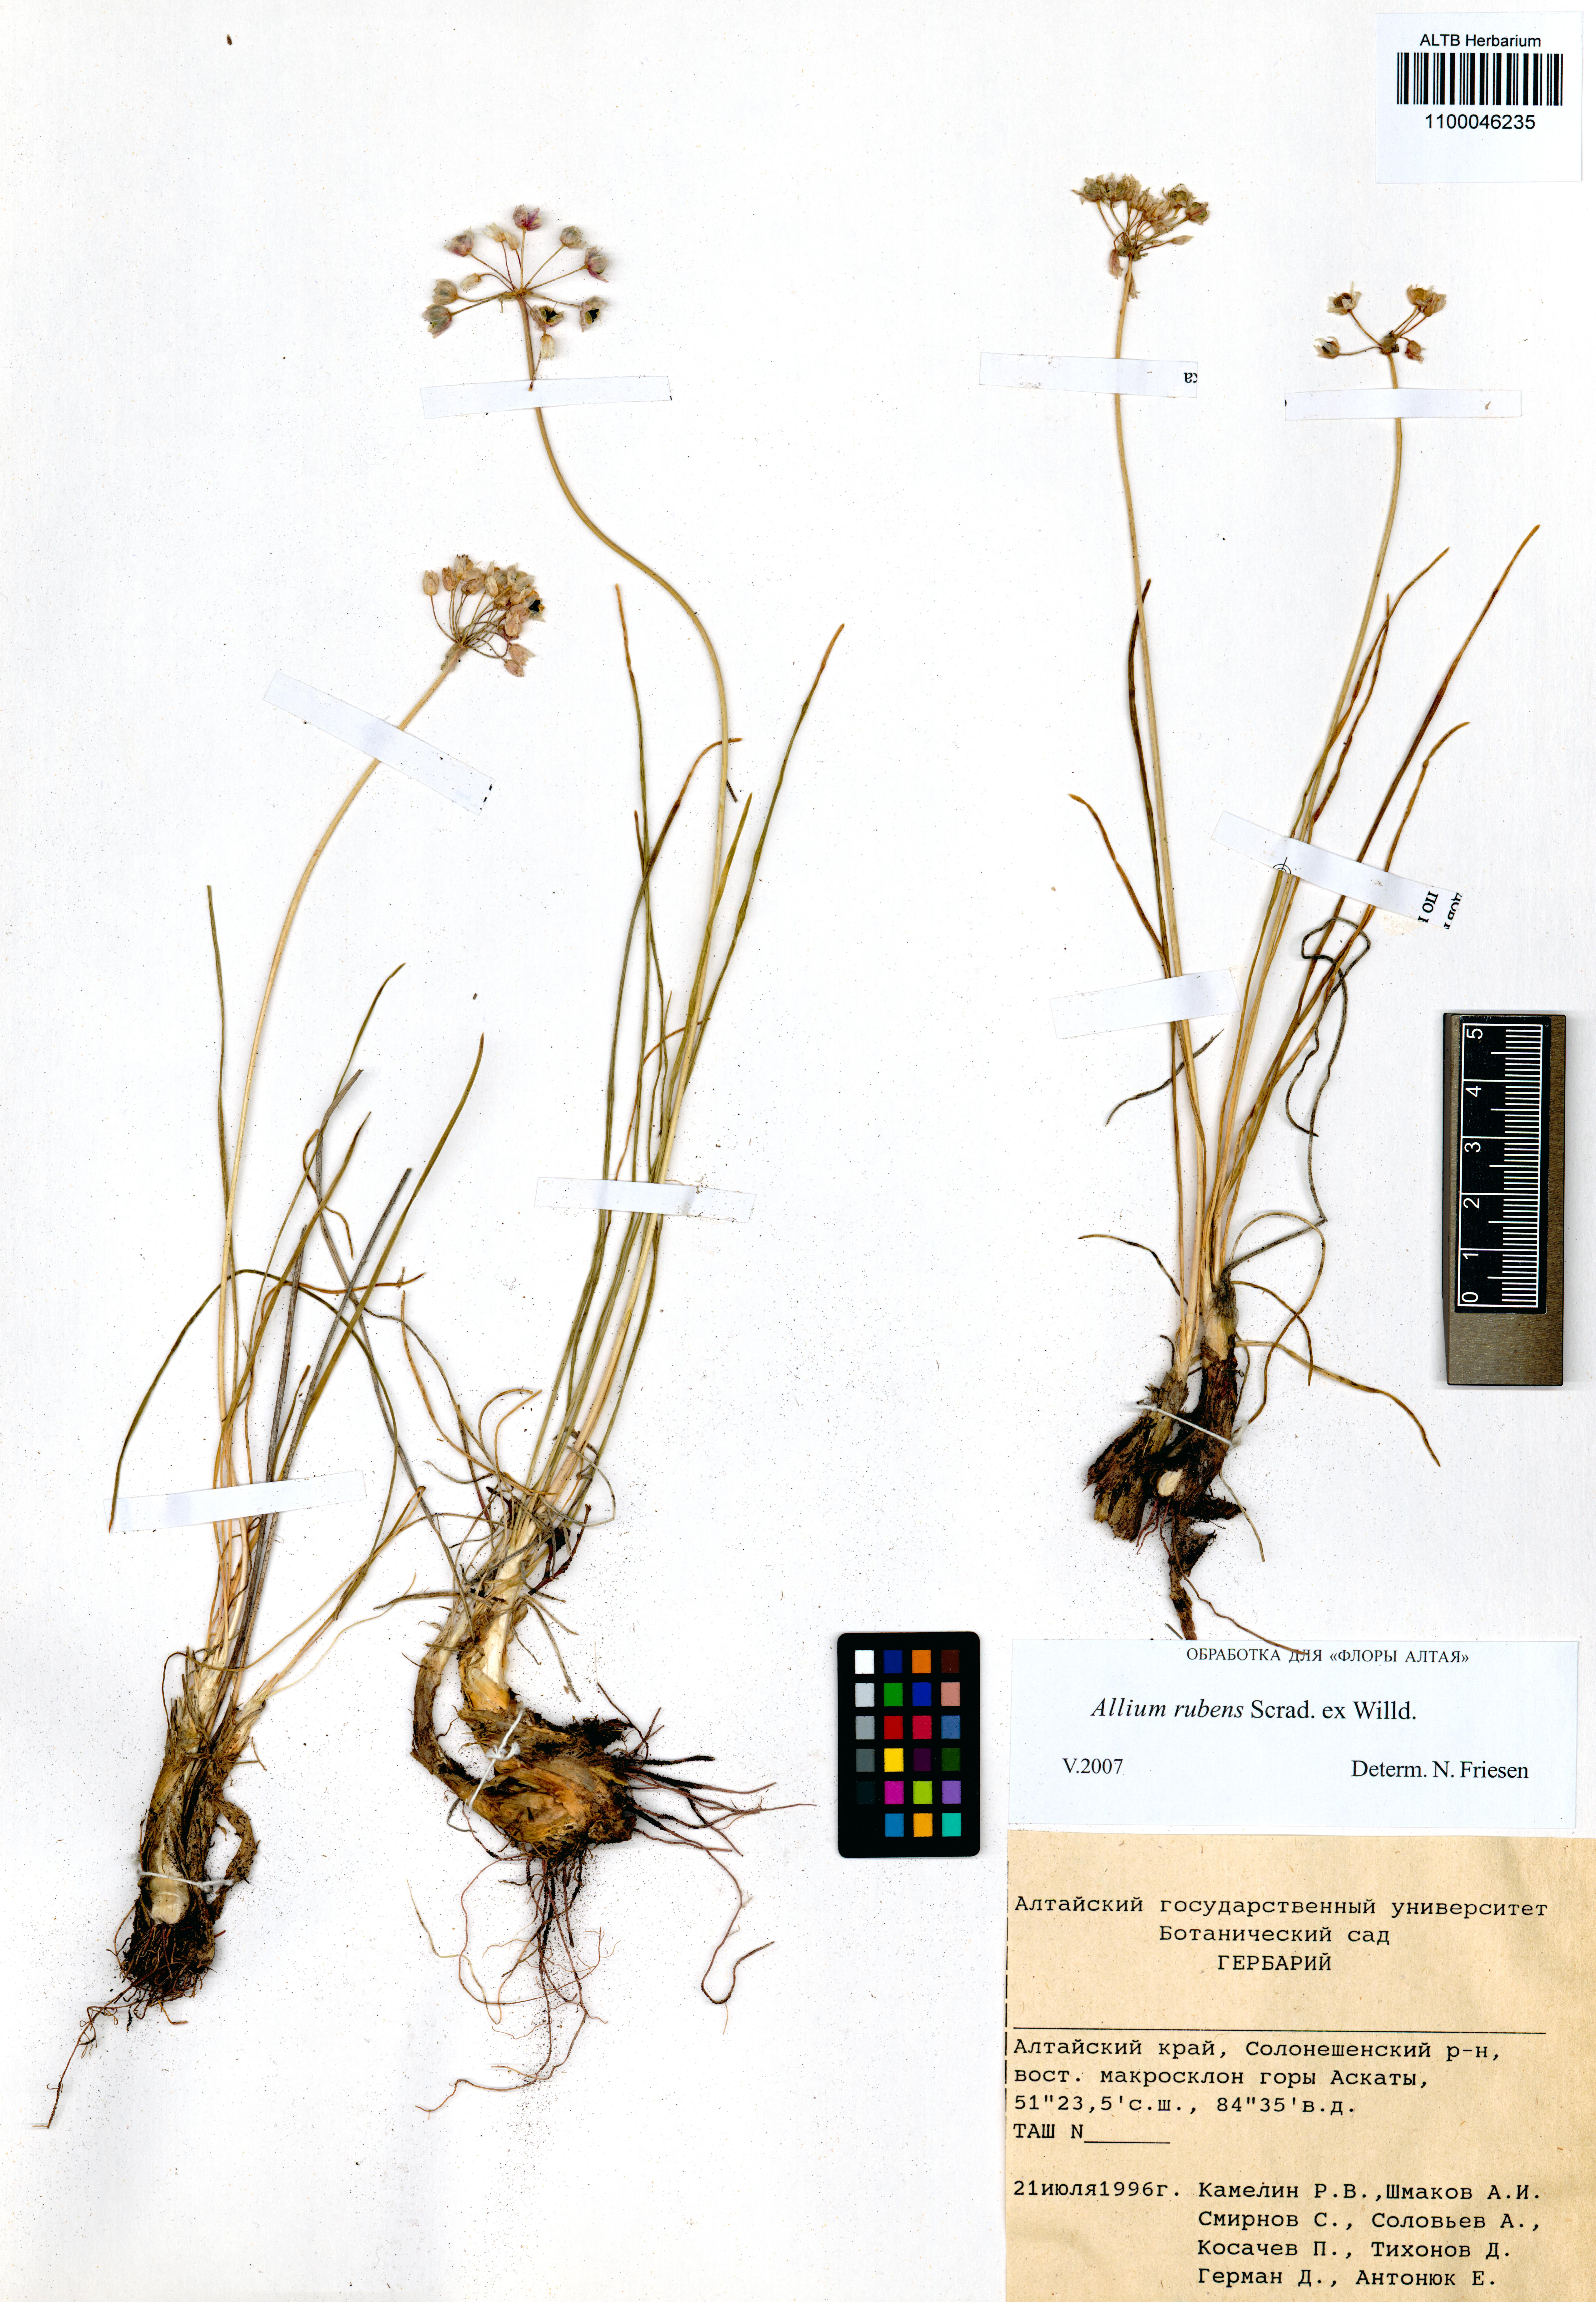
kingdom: Plantae
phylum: Tracheophyta
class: Liliopsida
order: Asparagales
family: Amaryllidaceae
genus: Allium
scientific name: Allium rubens
